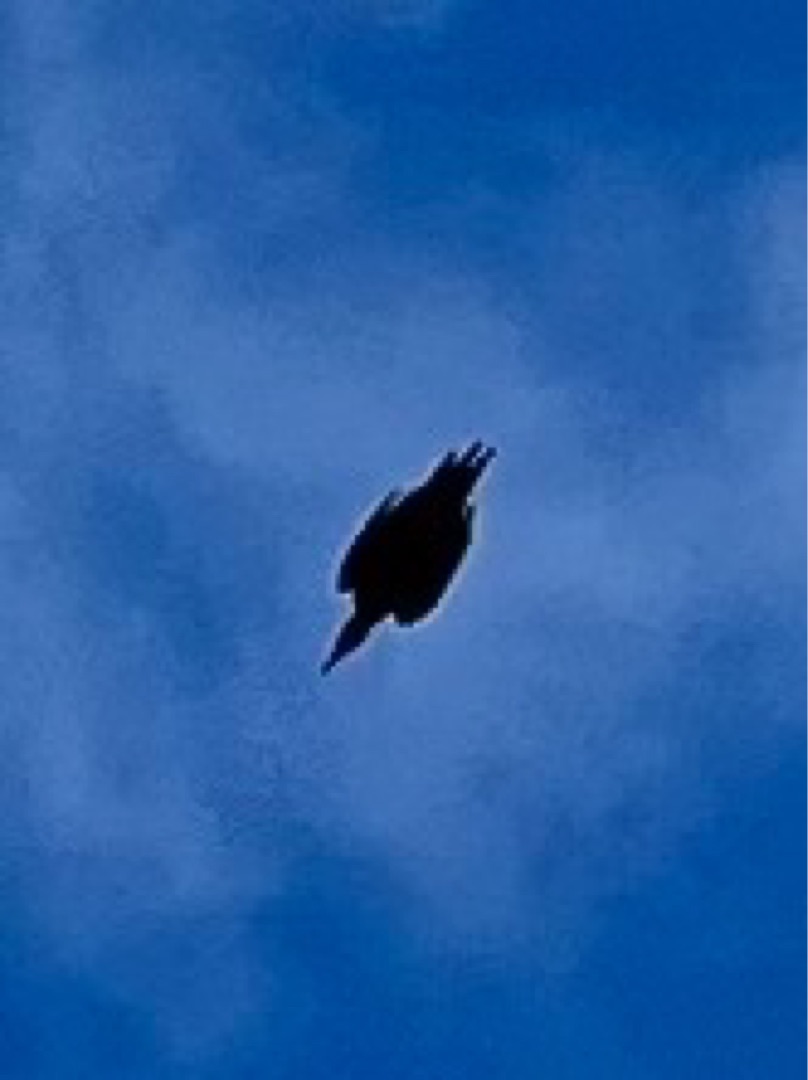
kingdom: Animalia
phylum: Chordata
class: Aves
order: Piciformes
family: Picidae
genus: Dryocopus
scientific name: Dryocopus martius
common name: Sortspætte
